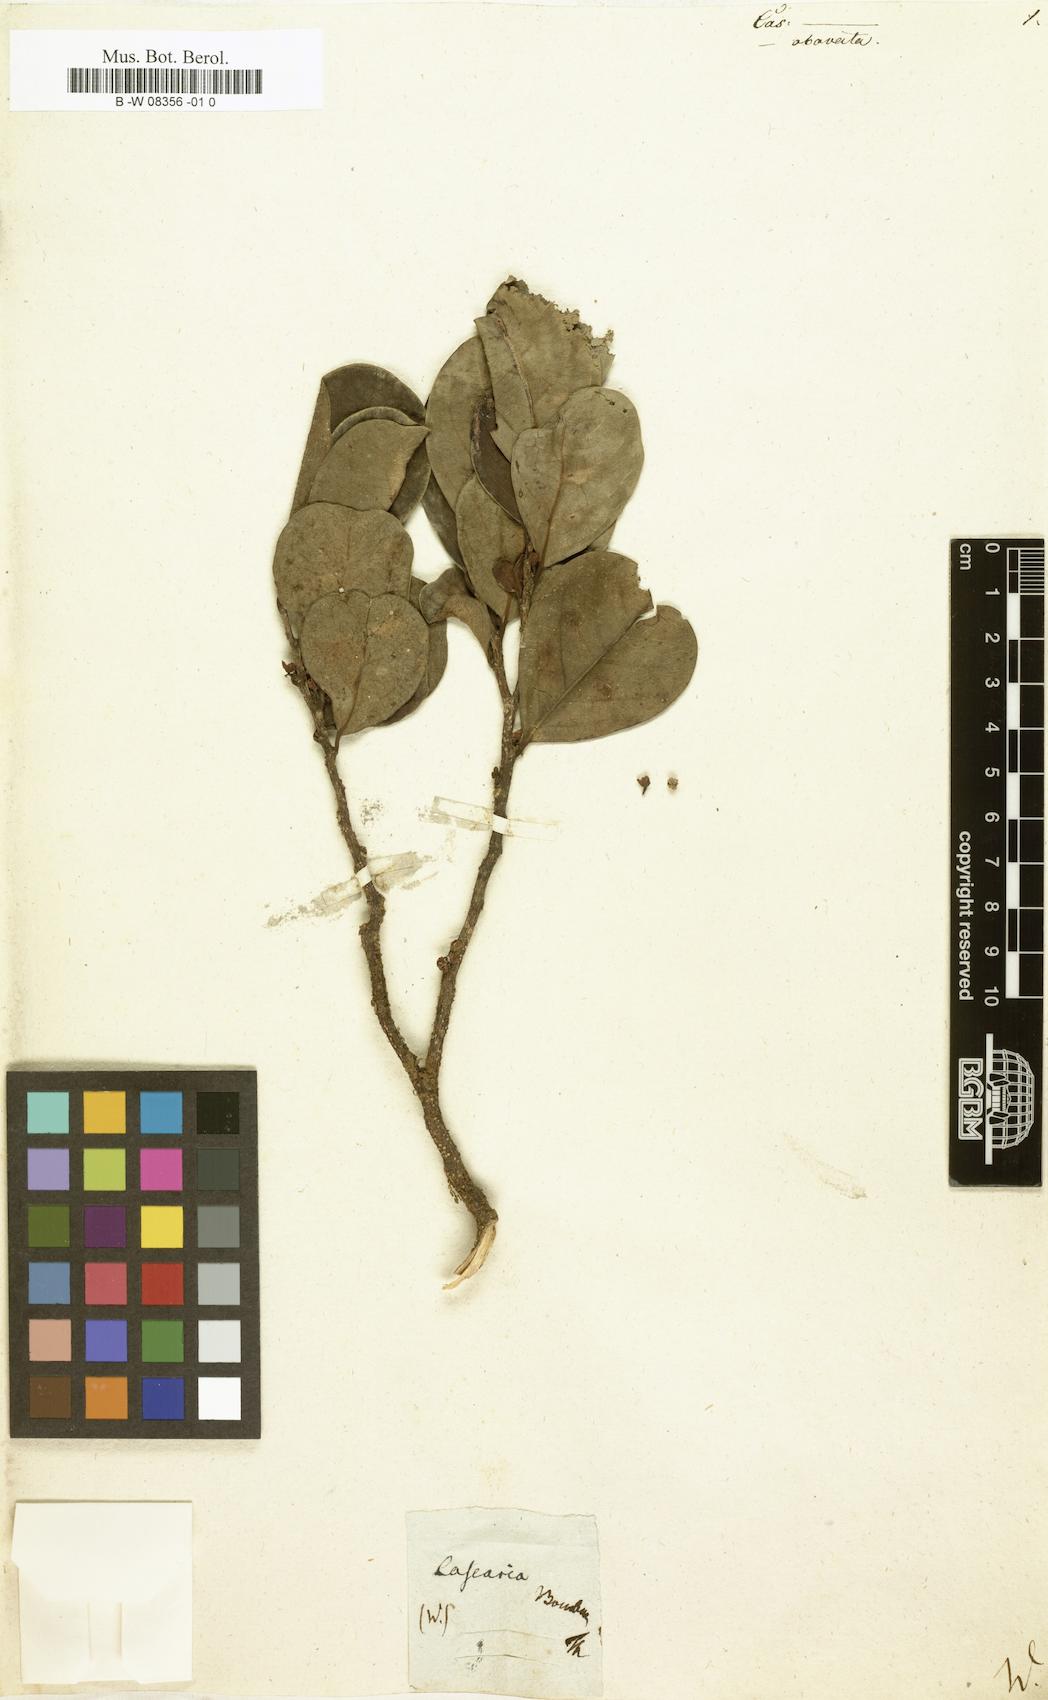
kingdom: Plantae
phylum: Tracheophyta
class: Magnoliopsida
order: Malpighiales
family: Salicaceae
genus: Casearia
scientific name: Casearia
